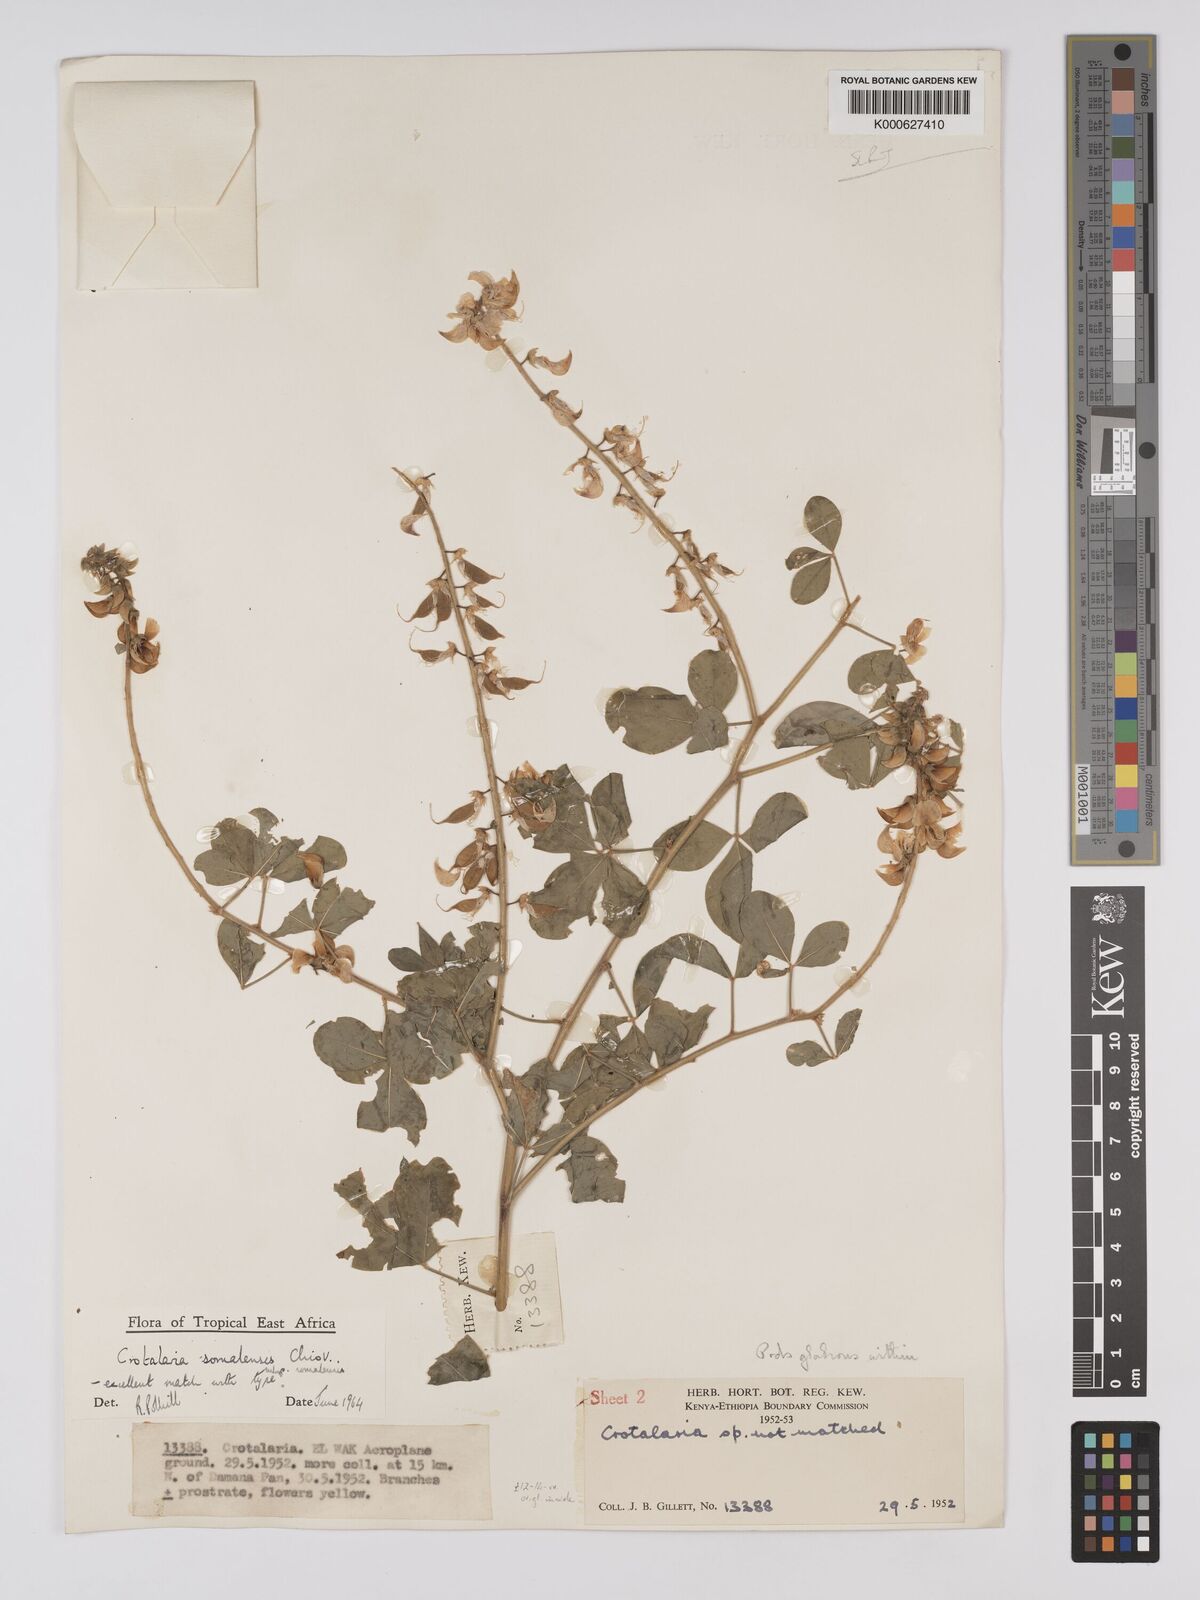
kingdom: Plantae
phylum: Tracheophyta
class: Magnoliopsida
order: Fabales
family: Fabaceae
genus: Crotalaria
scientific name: Crotalaria
